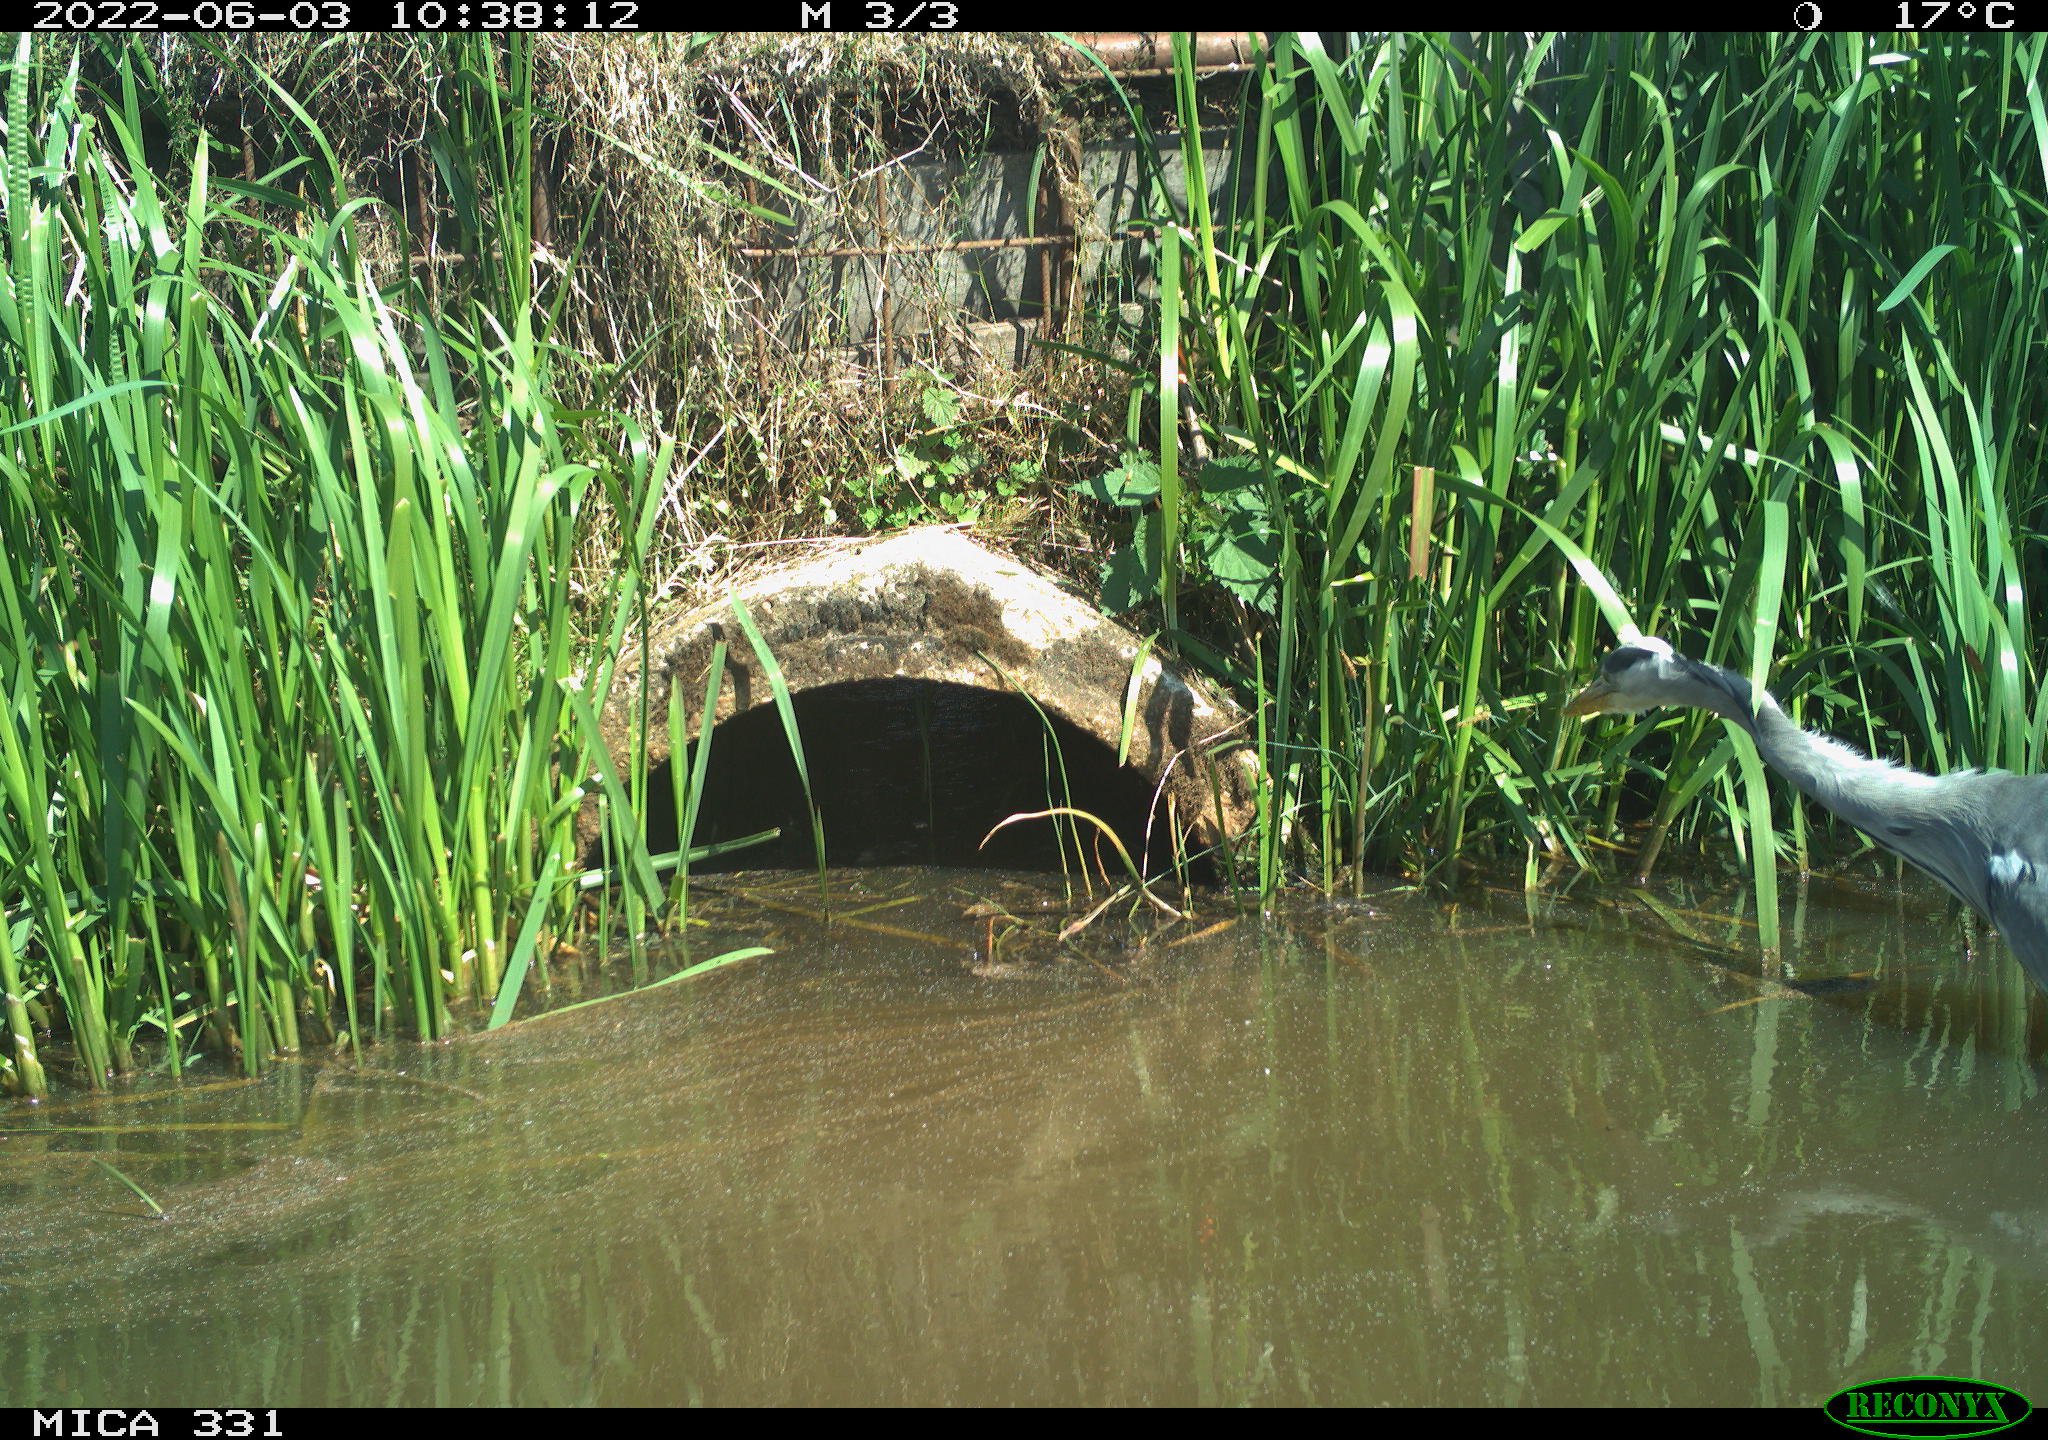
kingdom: Animalia
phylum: Chordata
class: Aves
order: Pelecaniformes
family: Ardeidae
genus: Ardea
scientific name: Ardea
